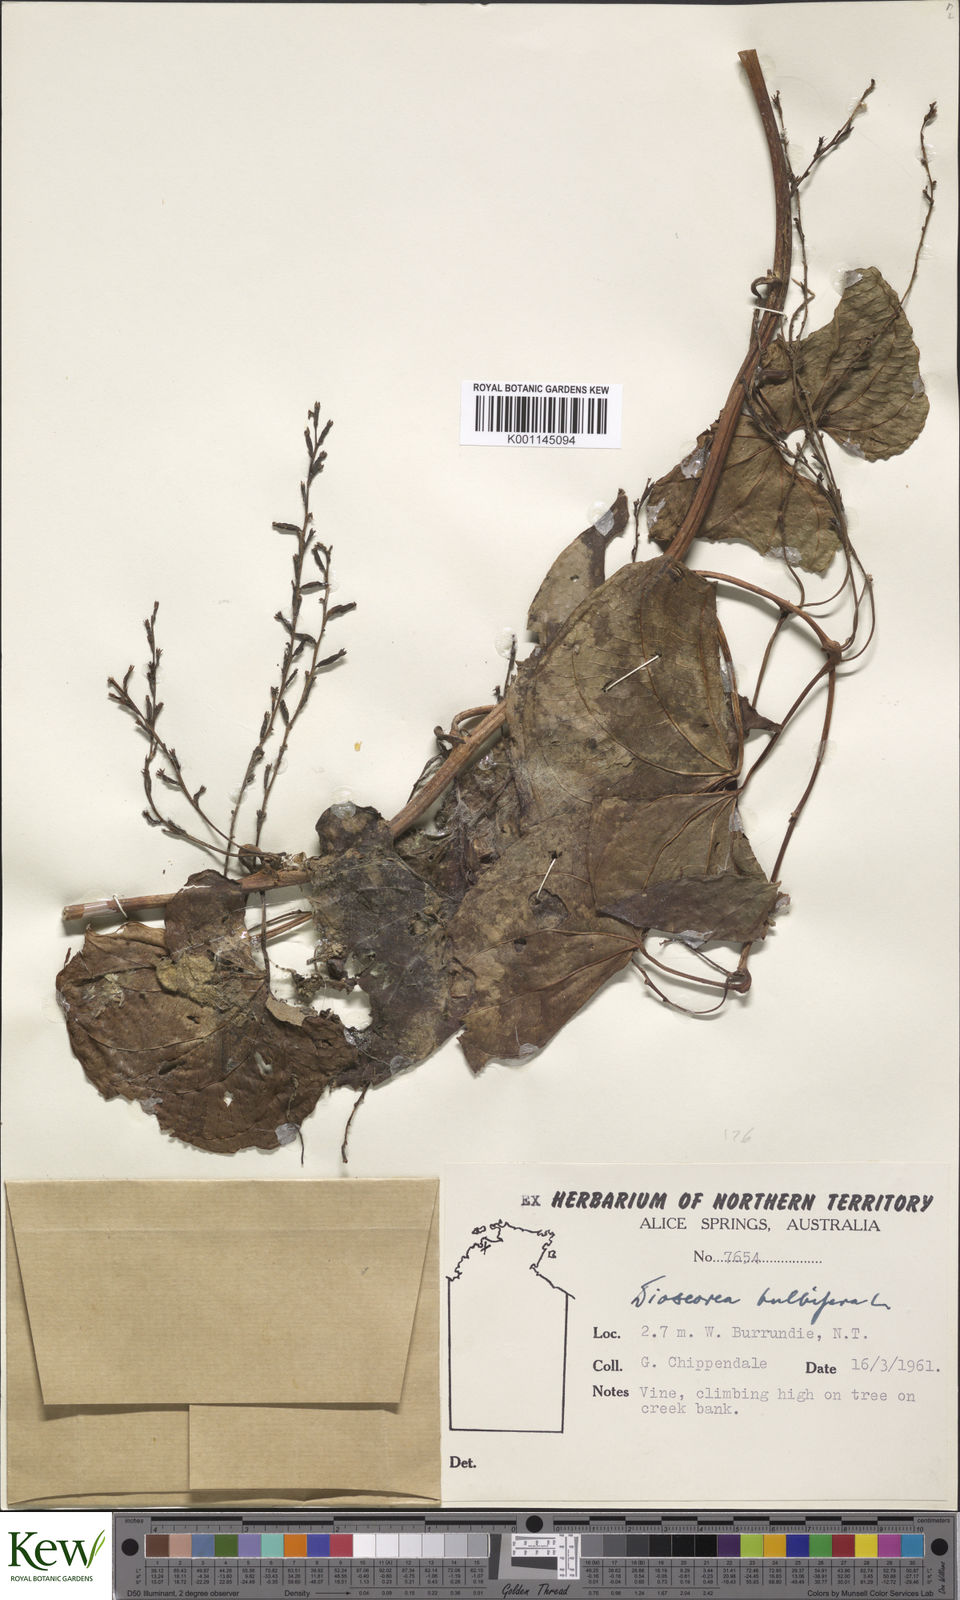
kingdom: Plantae
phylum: Tracheophyta
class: Liliopsida
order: Dioscoreales
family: Dioscoreaceae
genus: Dioscorea
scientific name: Dioscorea bulbifera
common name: Air yam
